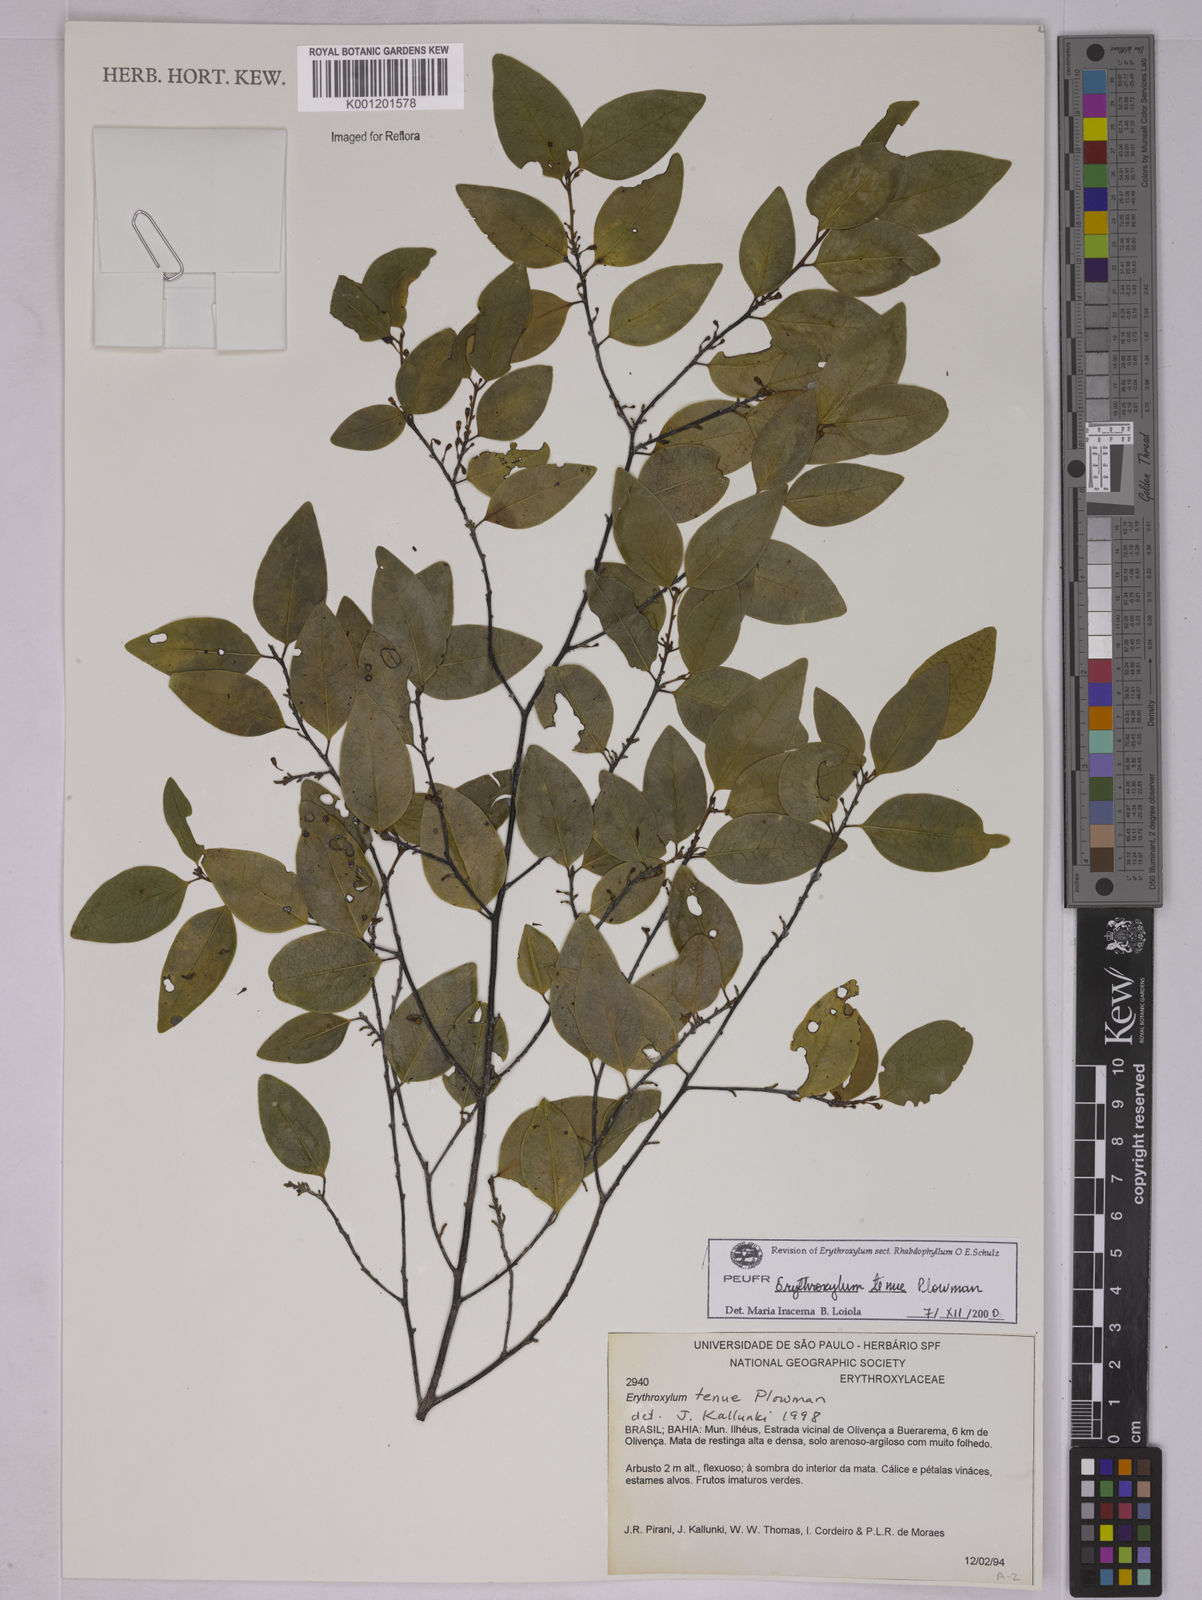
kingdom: Plantae
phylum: Tracheophyta
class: Magnoliopsida
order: Malpighiales
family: Erythroxylaceae
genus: Erythroxylum
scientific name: Erythroxylum tenue
